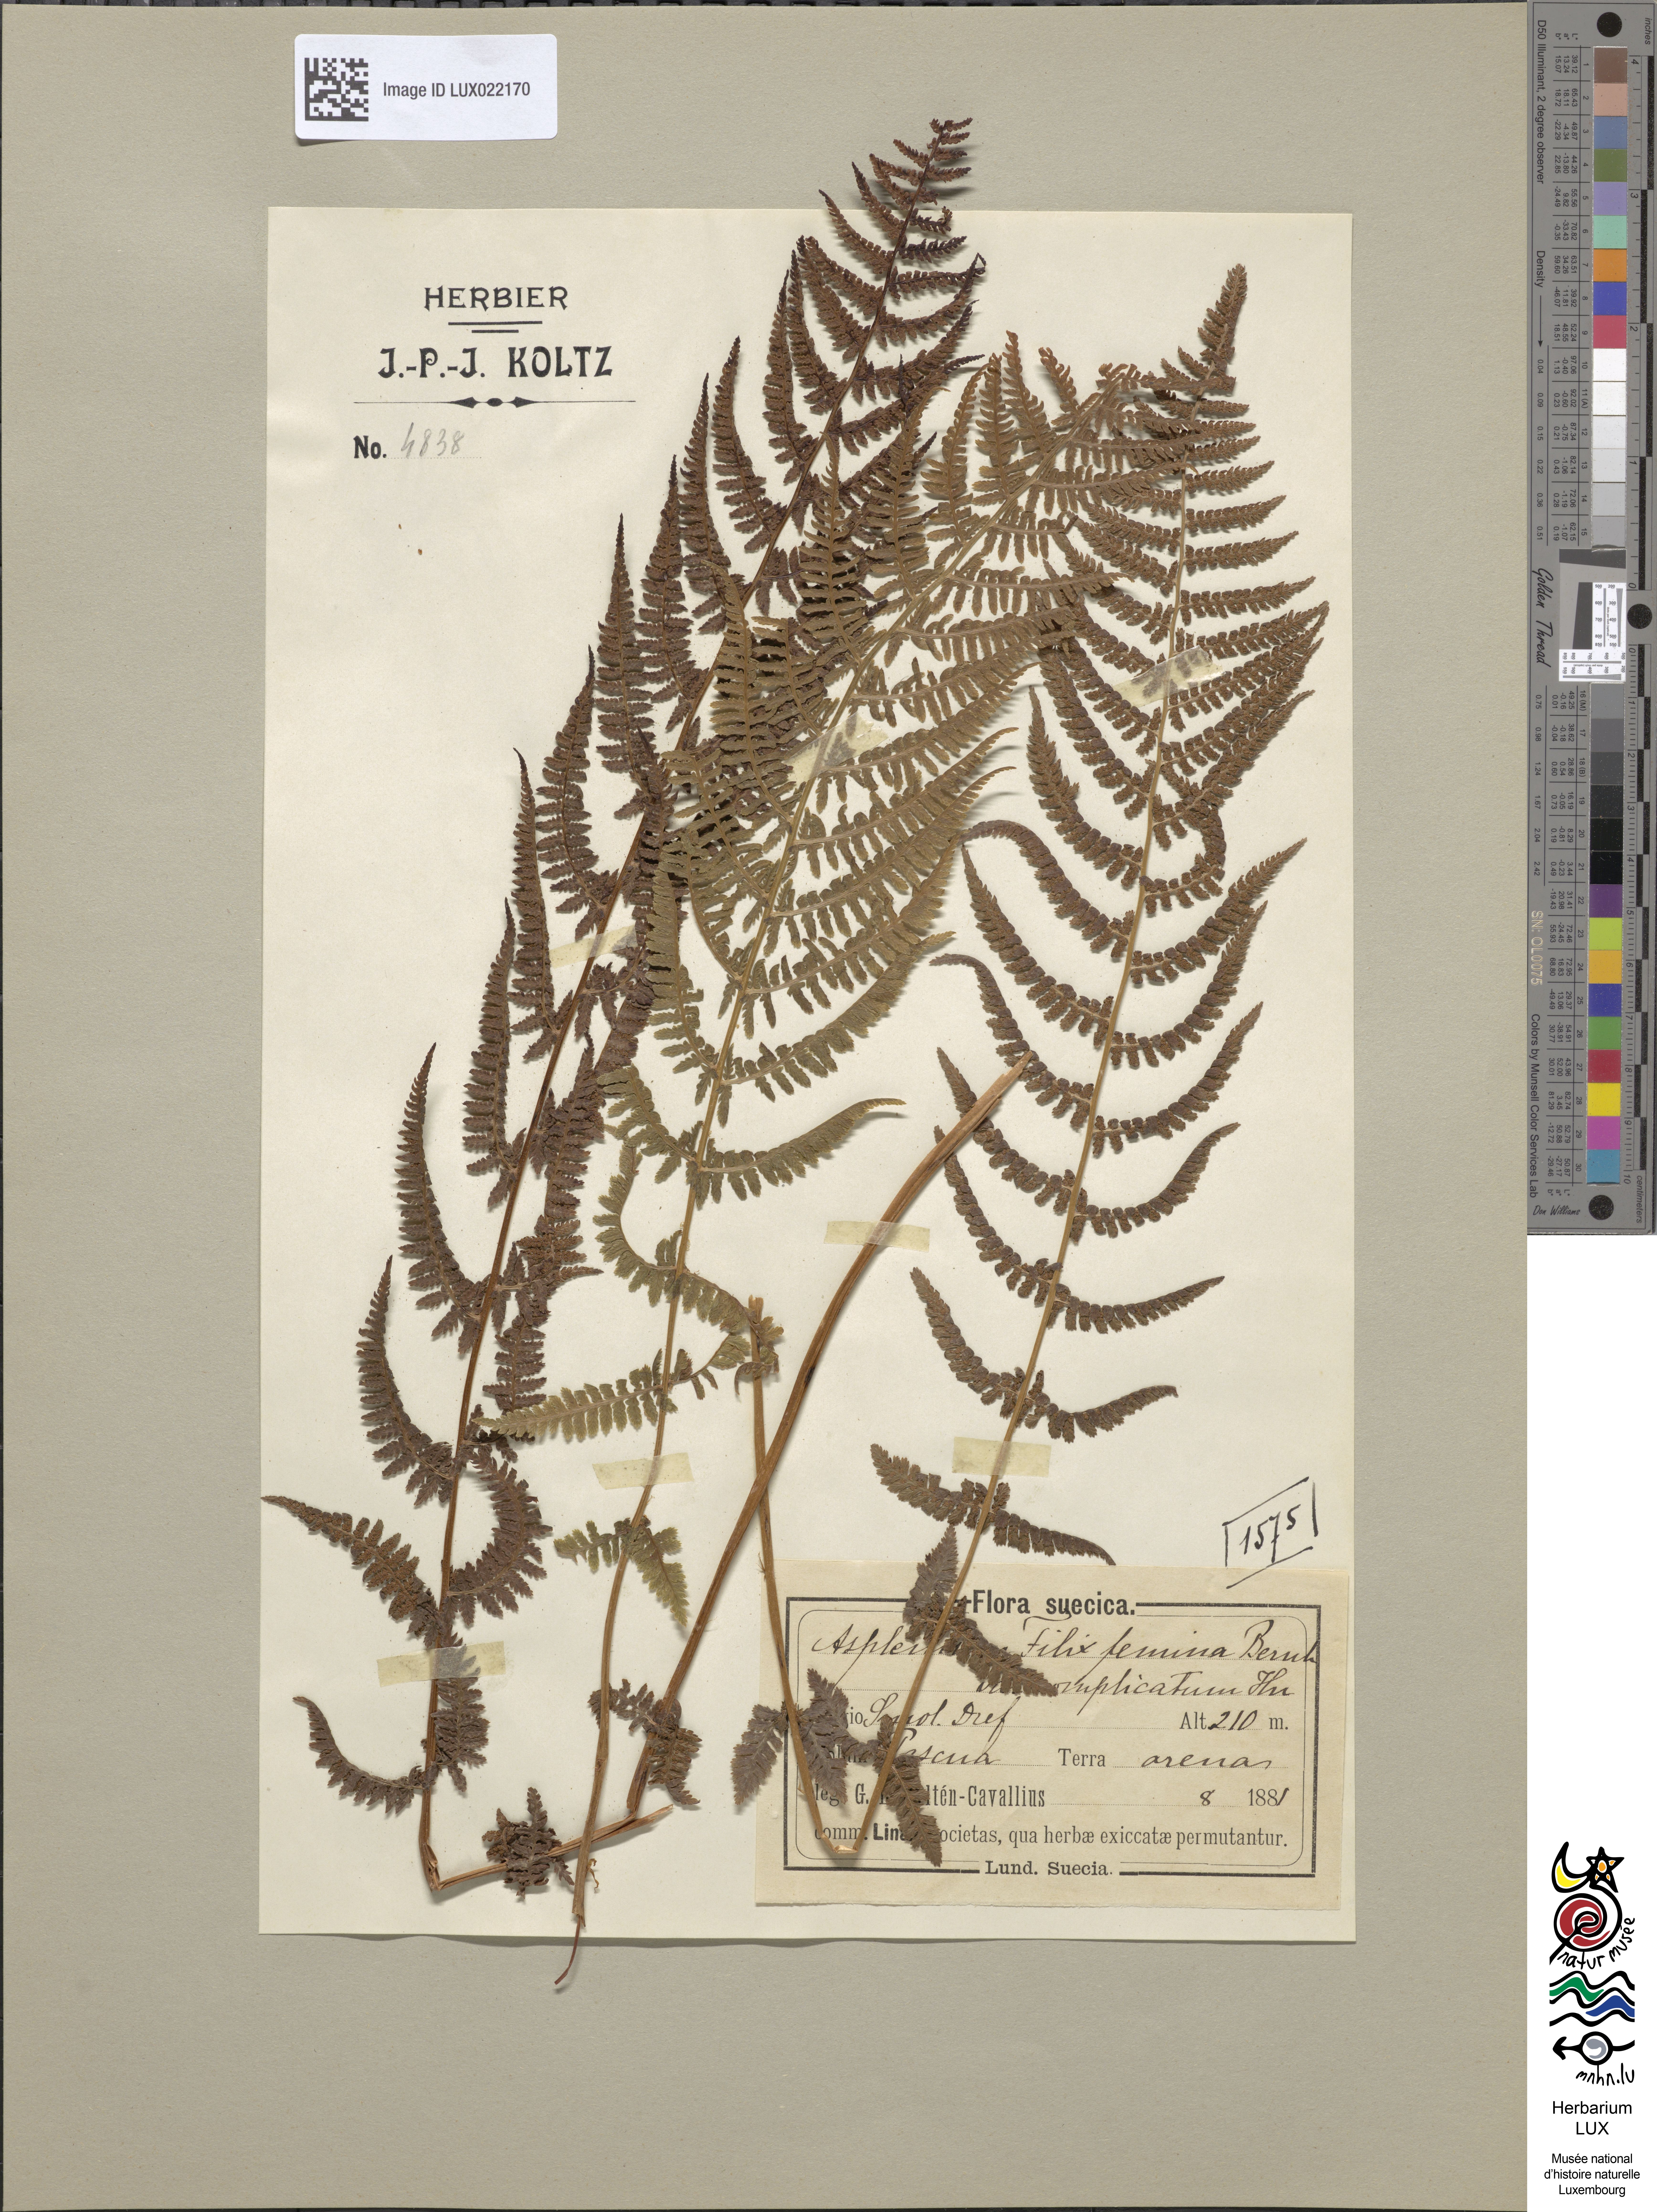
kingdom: Plantae
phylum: Tracheophyta
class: Polypodiopsida
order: Polypodiales
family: Athyriaceae
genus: Athyrium
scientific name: Athyrium filix-femina
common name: Lady fern
